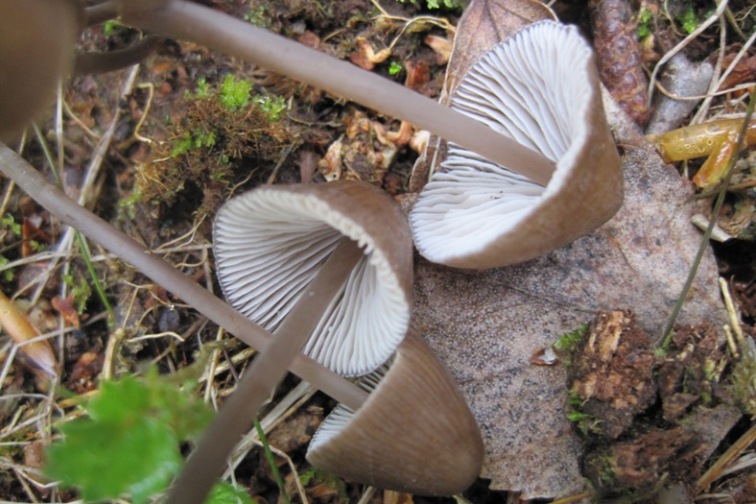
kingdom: Fungi
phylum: Basidiomycota
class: Agaricomycetes
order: Agaricales
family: Mycenaceae
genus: Mycena
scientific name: Mycena silvae-nigrae
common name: tidlig huesvamp
